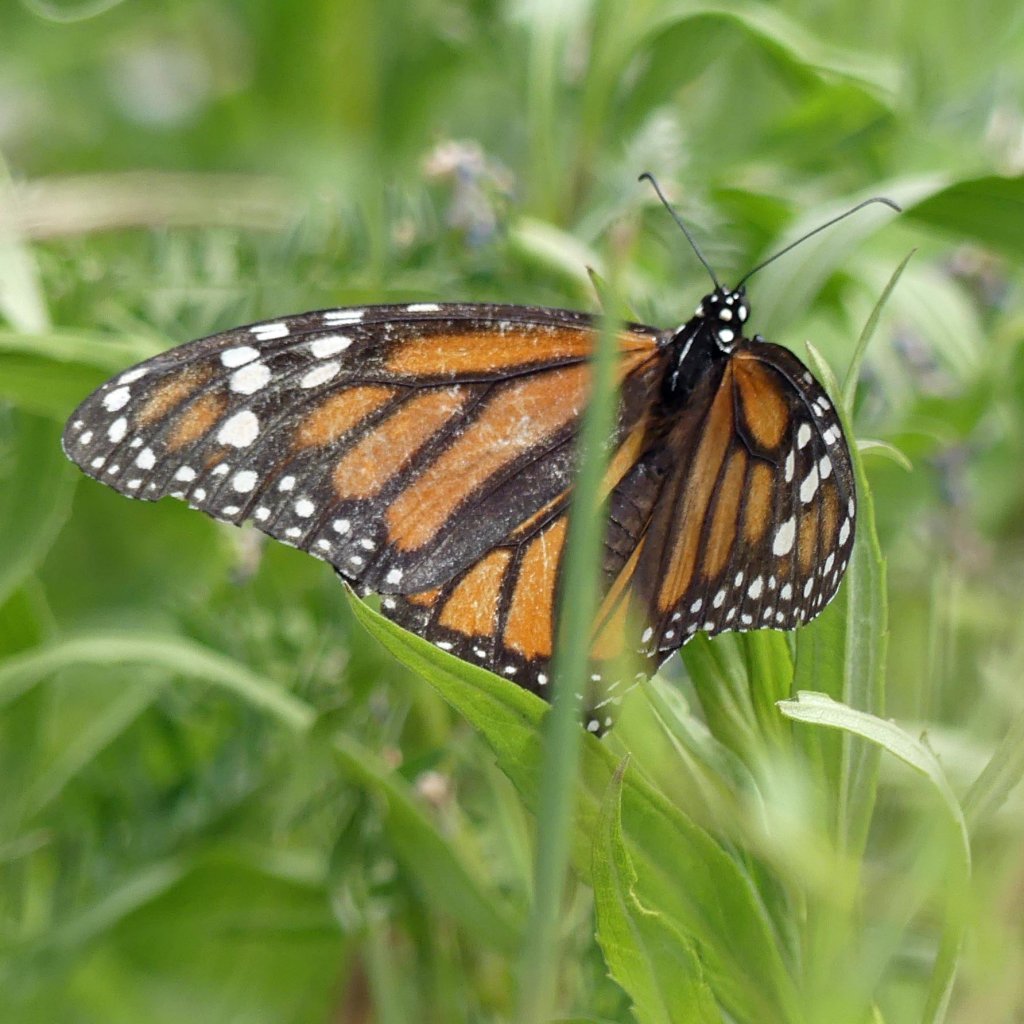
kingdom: Animalia
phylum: Arthropoda
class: Insecta
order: Lepidoptera
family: Nymphalidae
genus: Danaus
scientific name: Danaus plexippus
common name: Monarch
